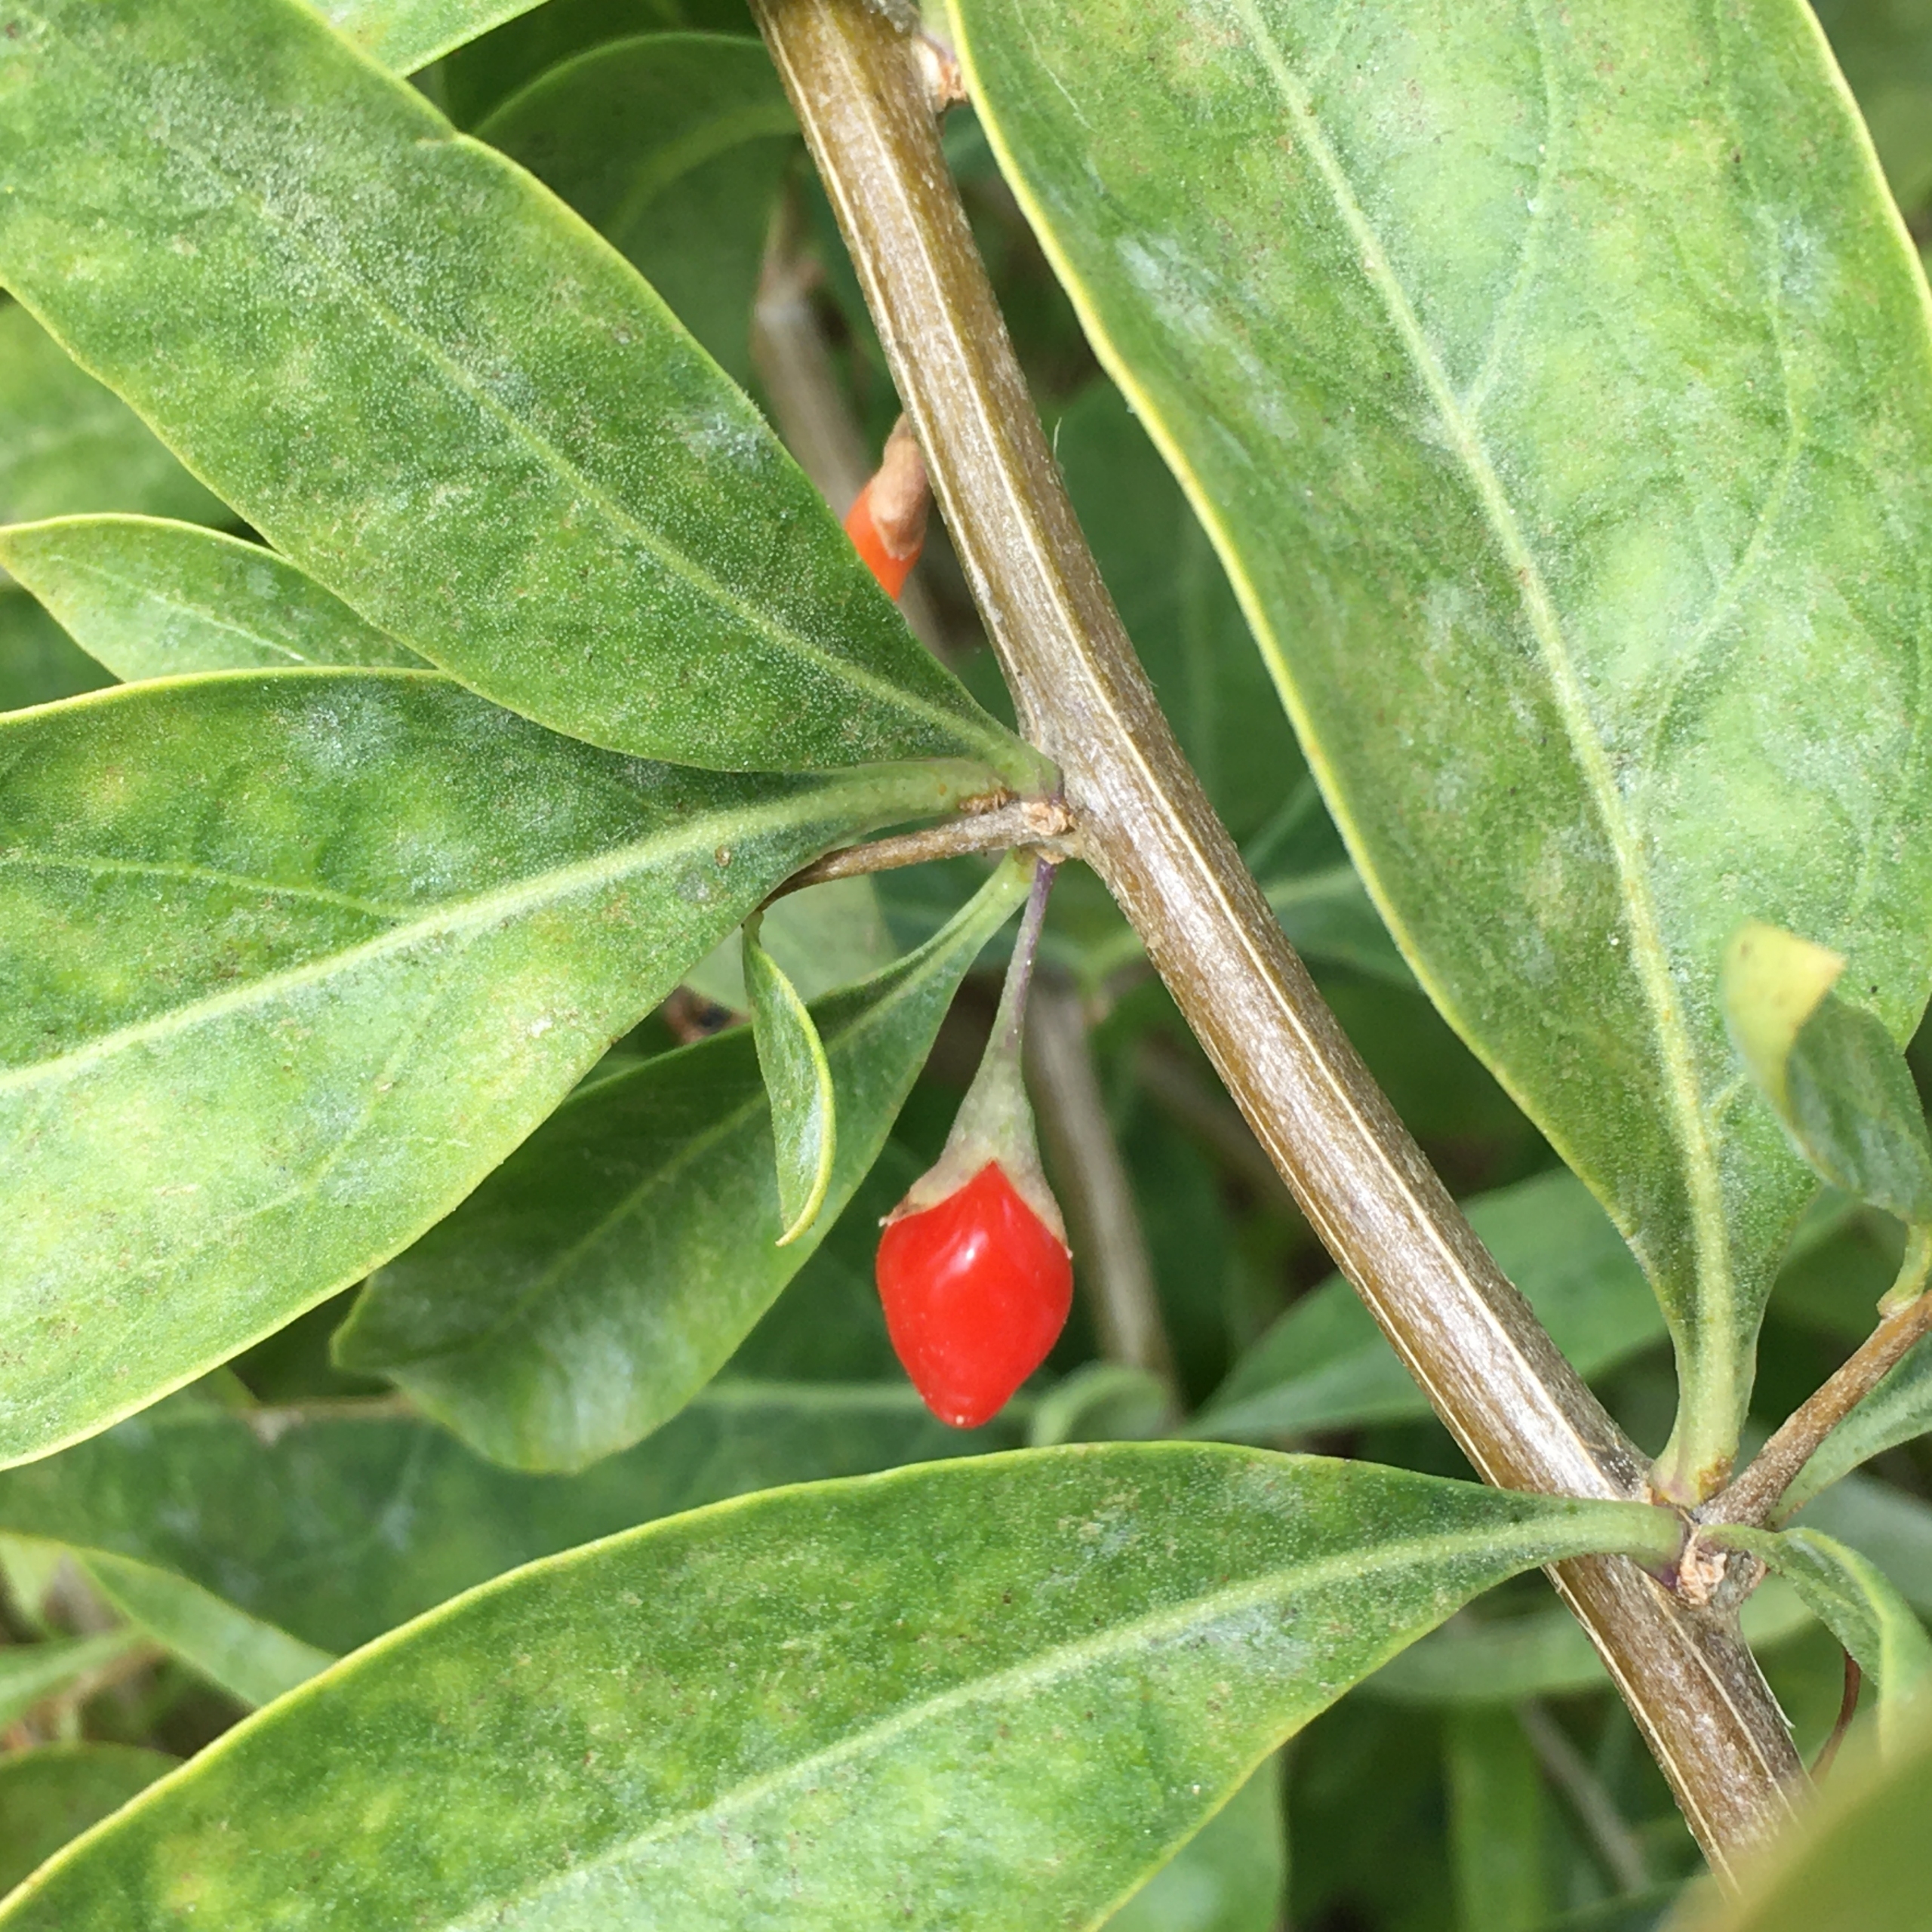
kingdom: Plantae
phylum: Tracheophyta
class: Magnoliopsida
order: Solanales
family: Solanaceae
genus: Lycium
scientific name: Lycium barbarum
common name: Bukketorn
